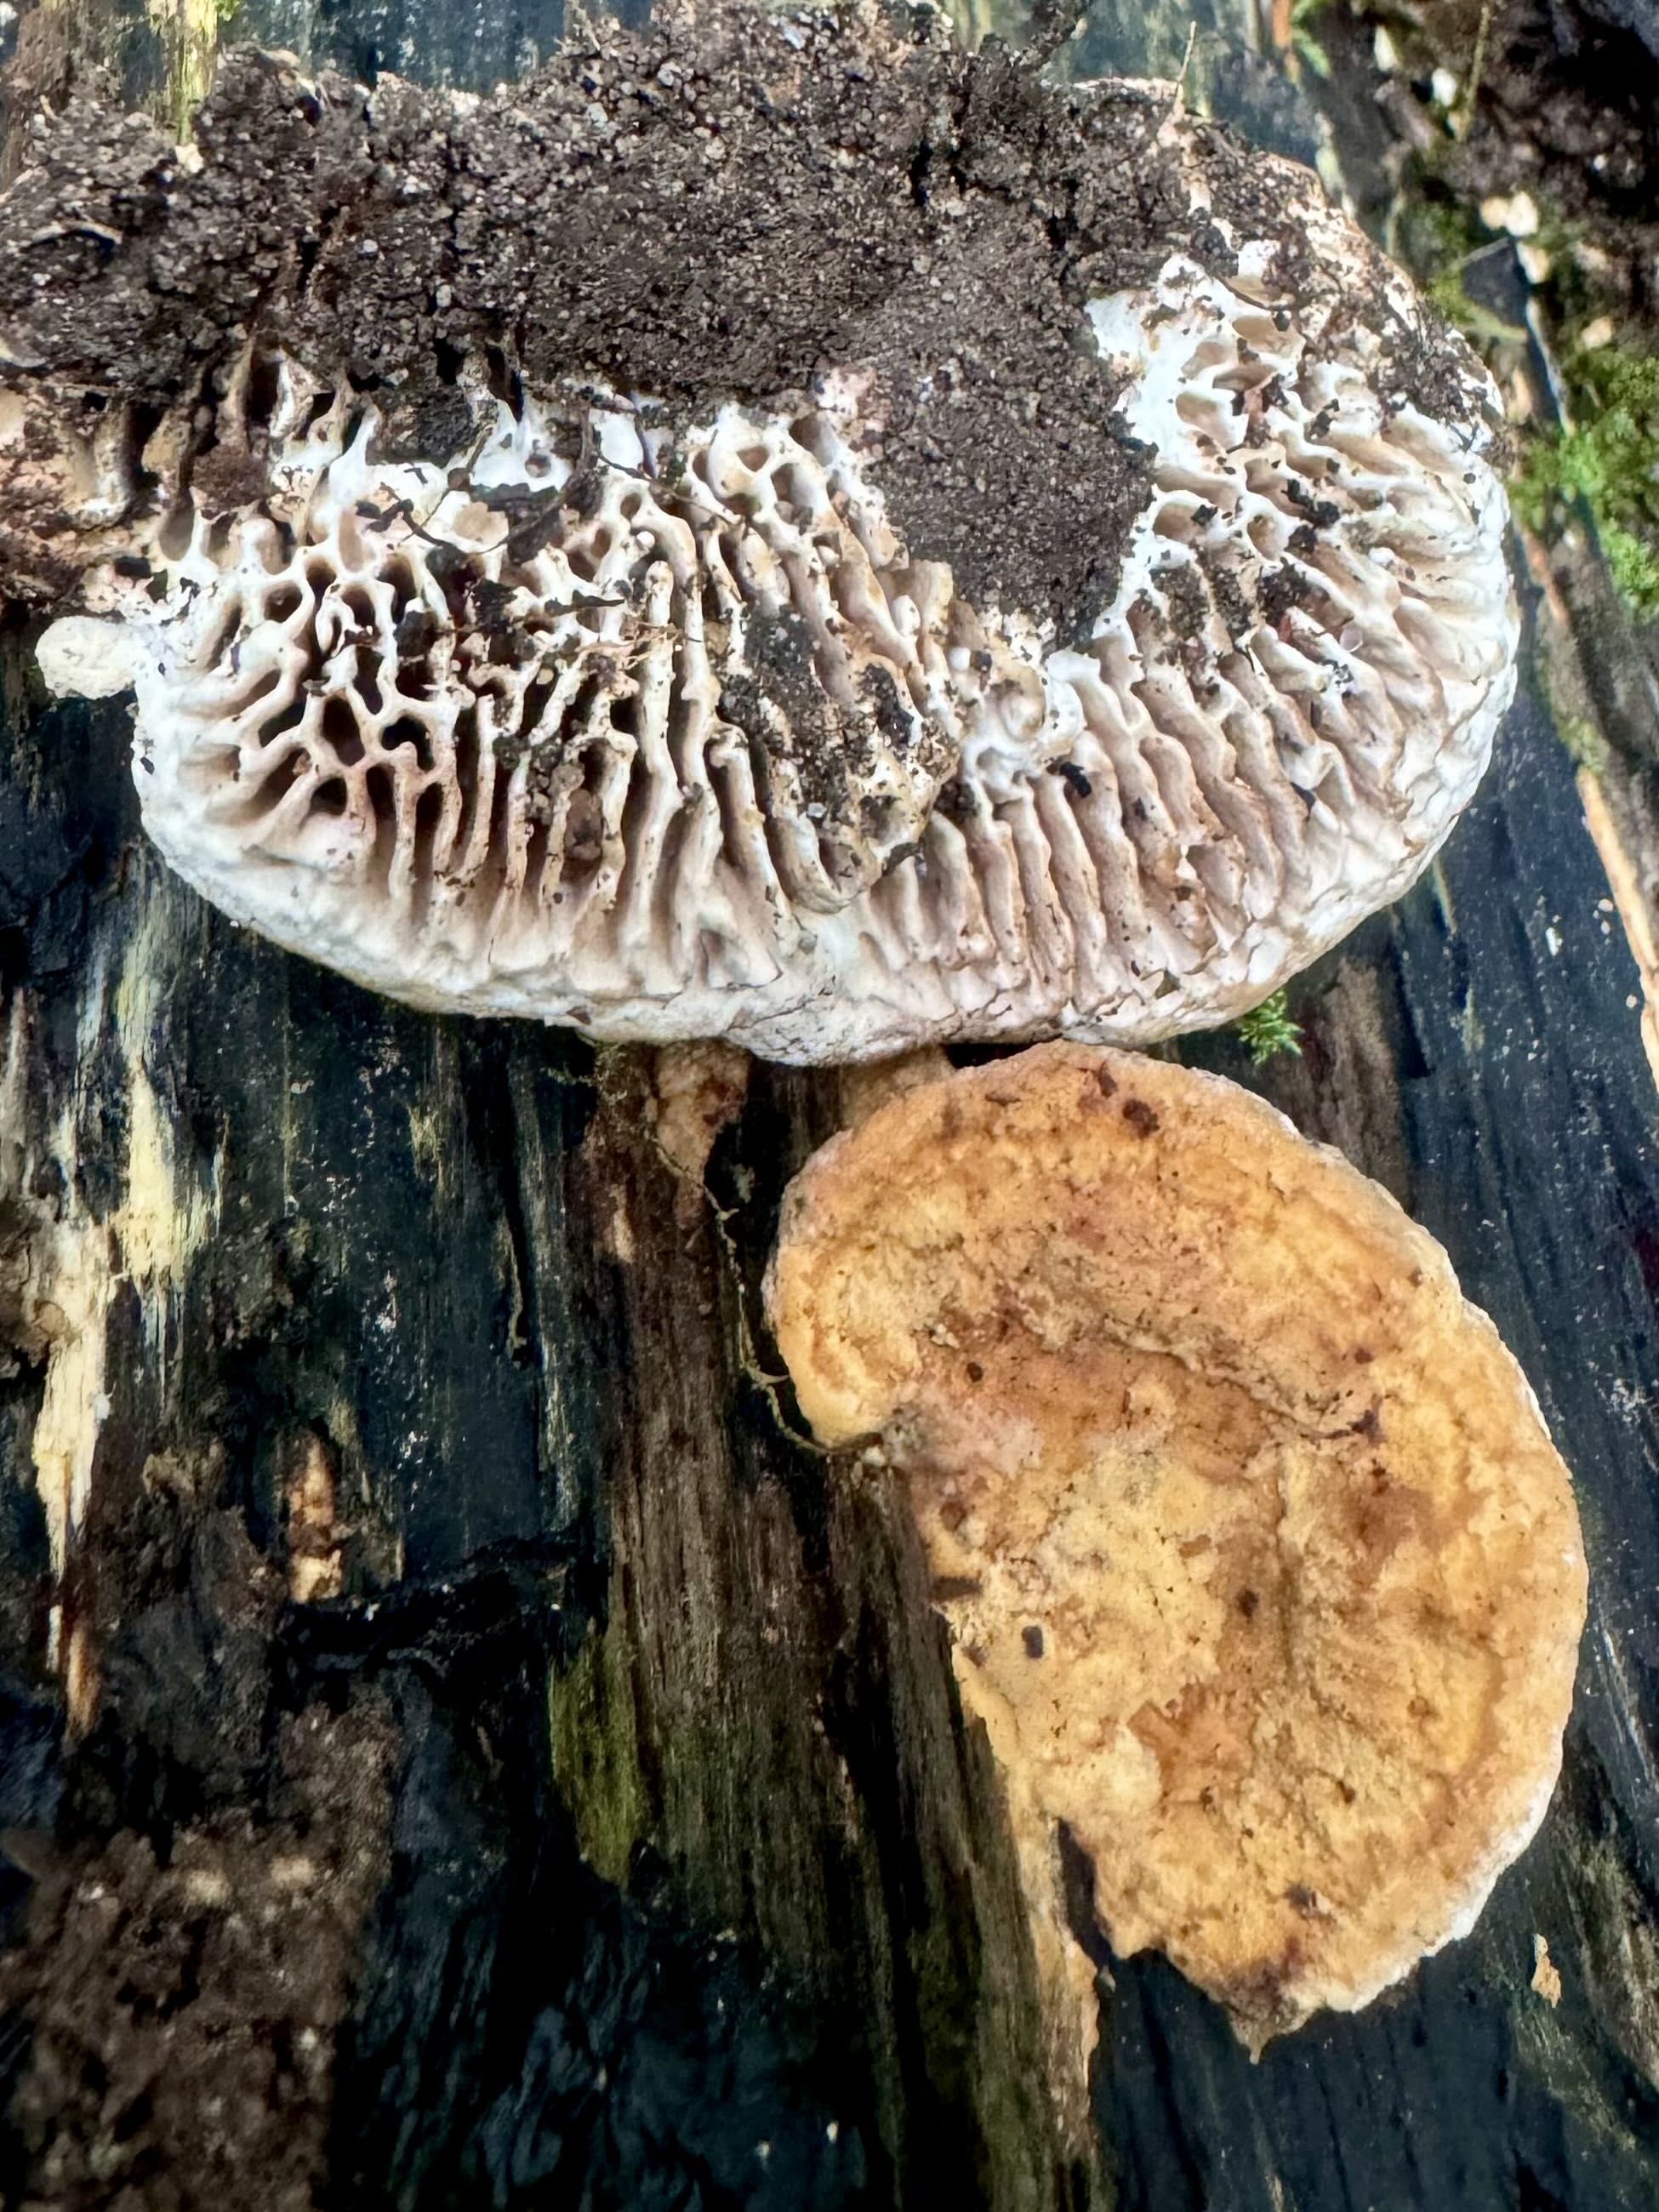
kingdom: Fungi
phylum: Basidiomycota
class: Agaricomycetes
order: Polyporales
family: Fomitopsidaceae
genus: Daedalea
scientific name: Daedalea quercina
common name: ege-labyrintsvamp
